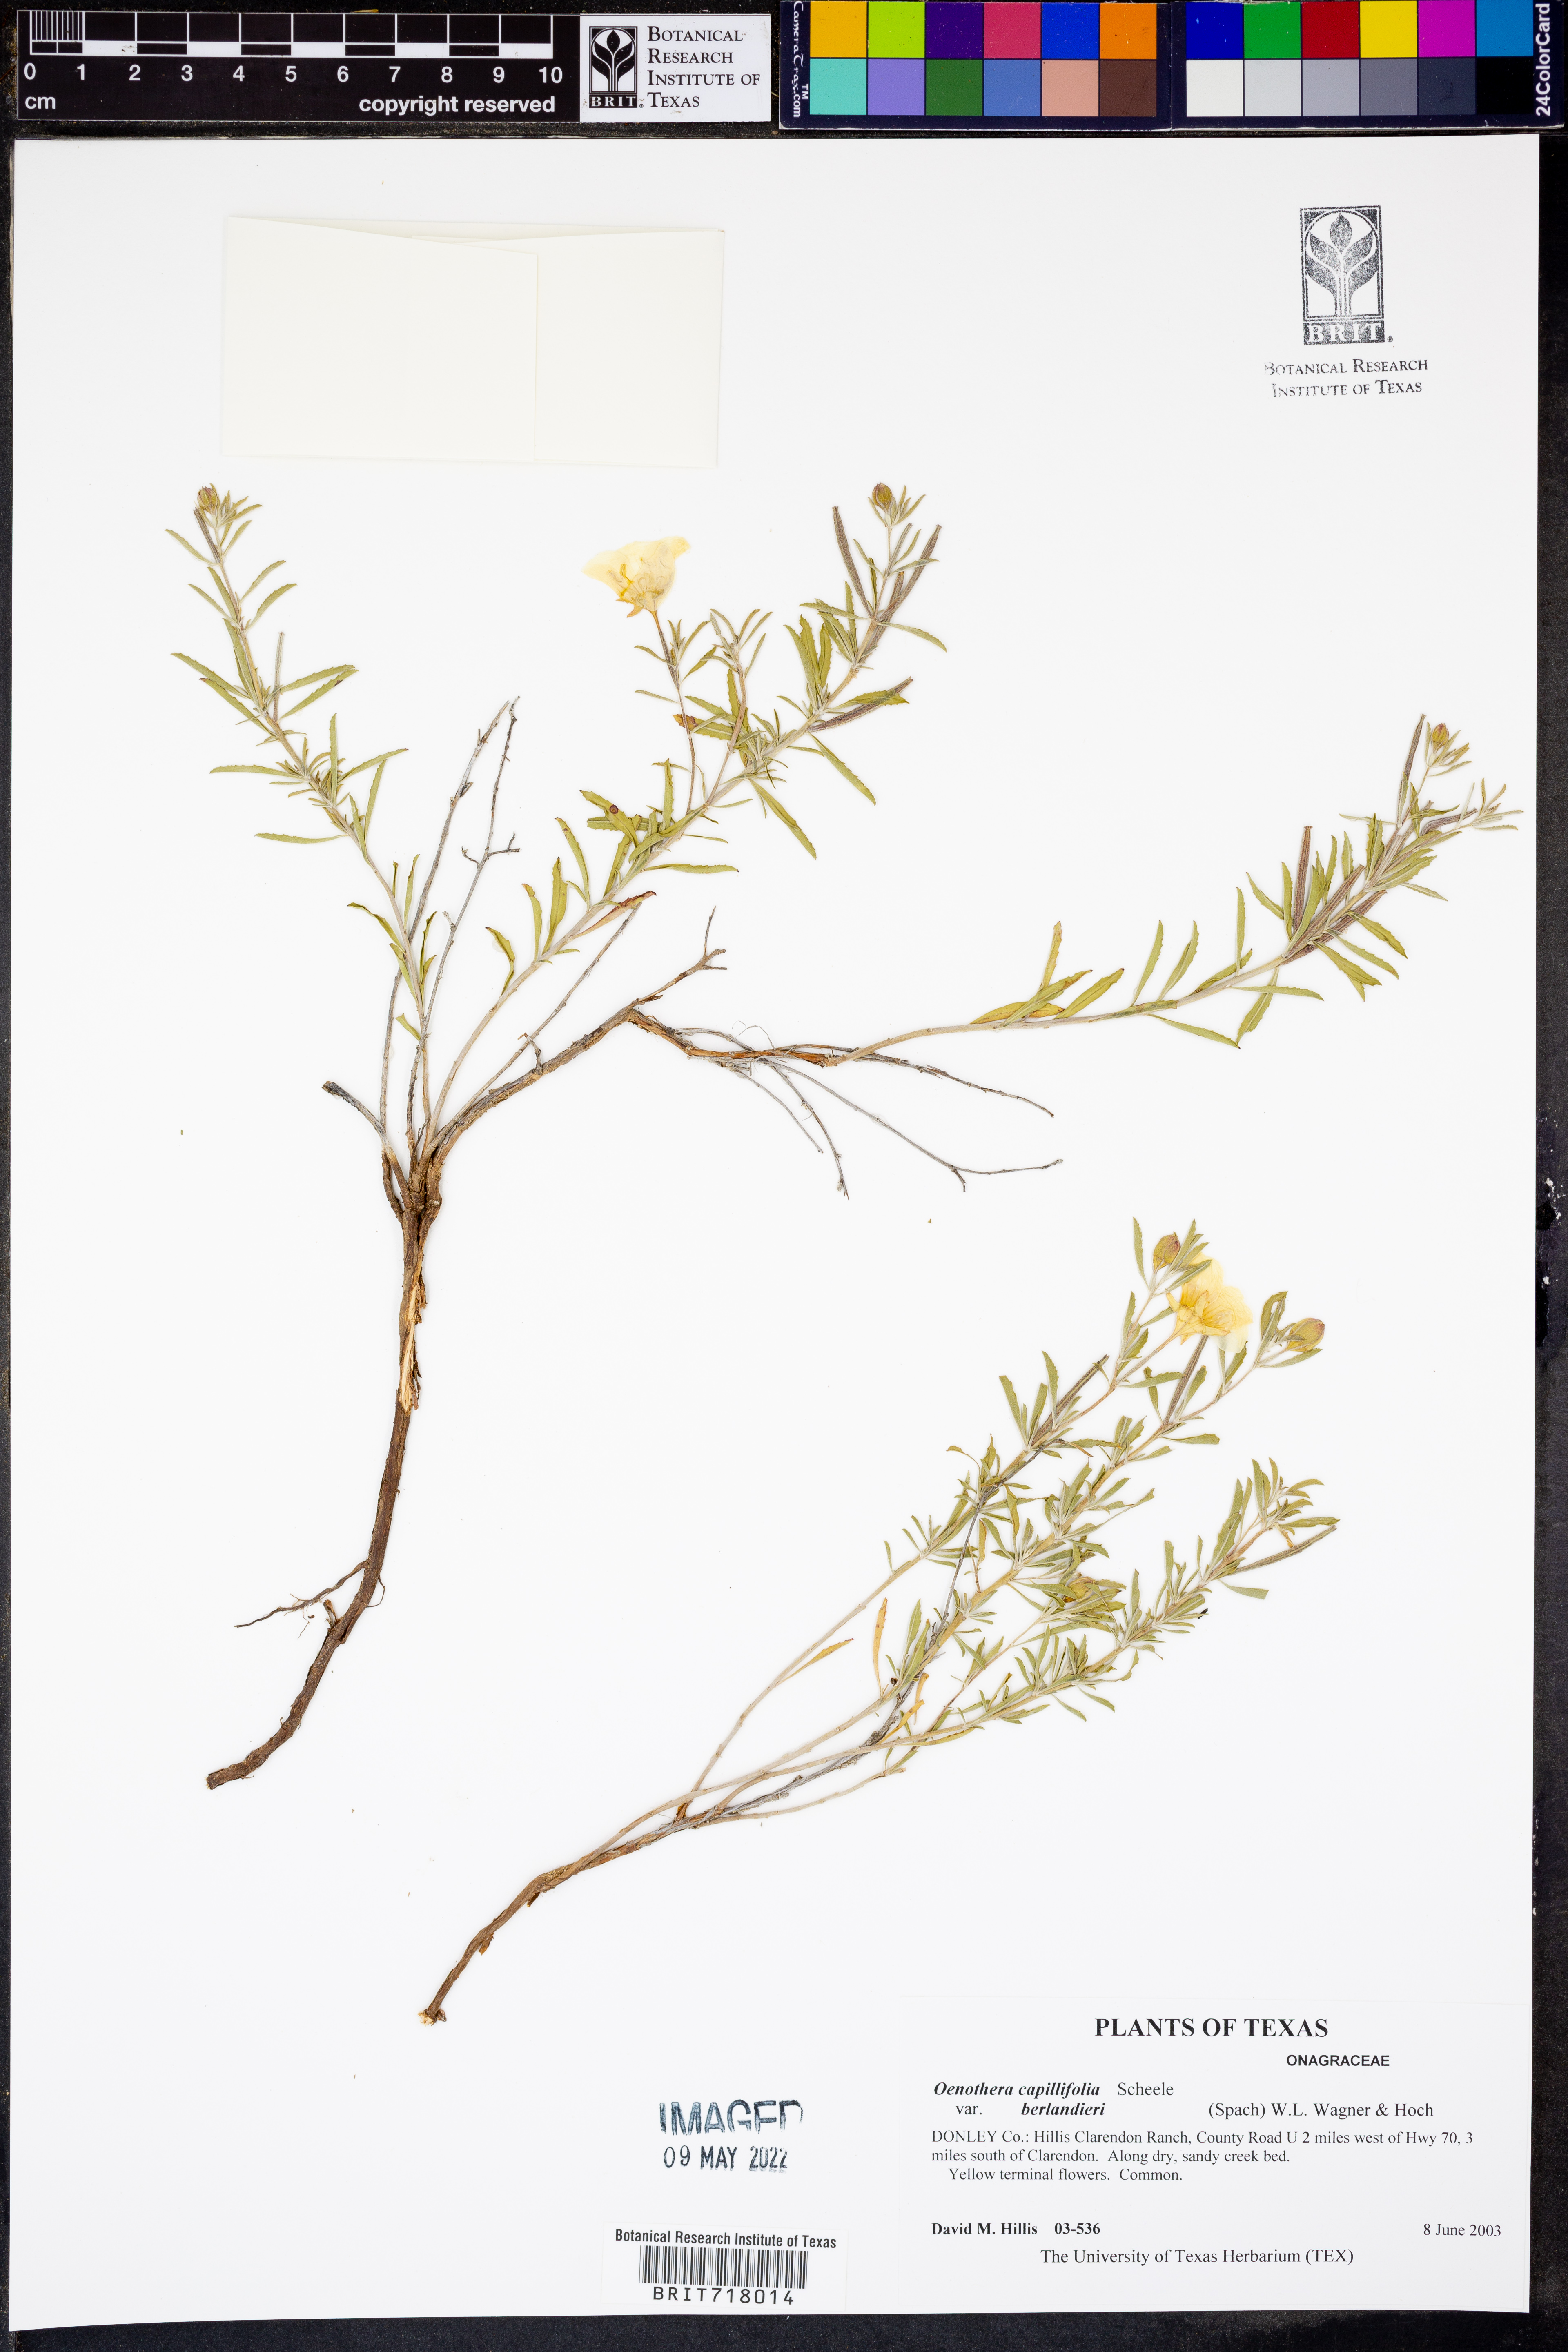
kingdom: Plantae
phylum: Tracheophyta
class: Magnoliopsida
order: Myrtales
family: Onagraceae
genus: Oenothera
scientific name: Oenothera capillifolia
